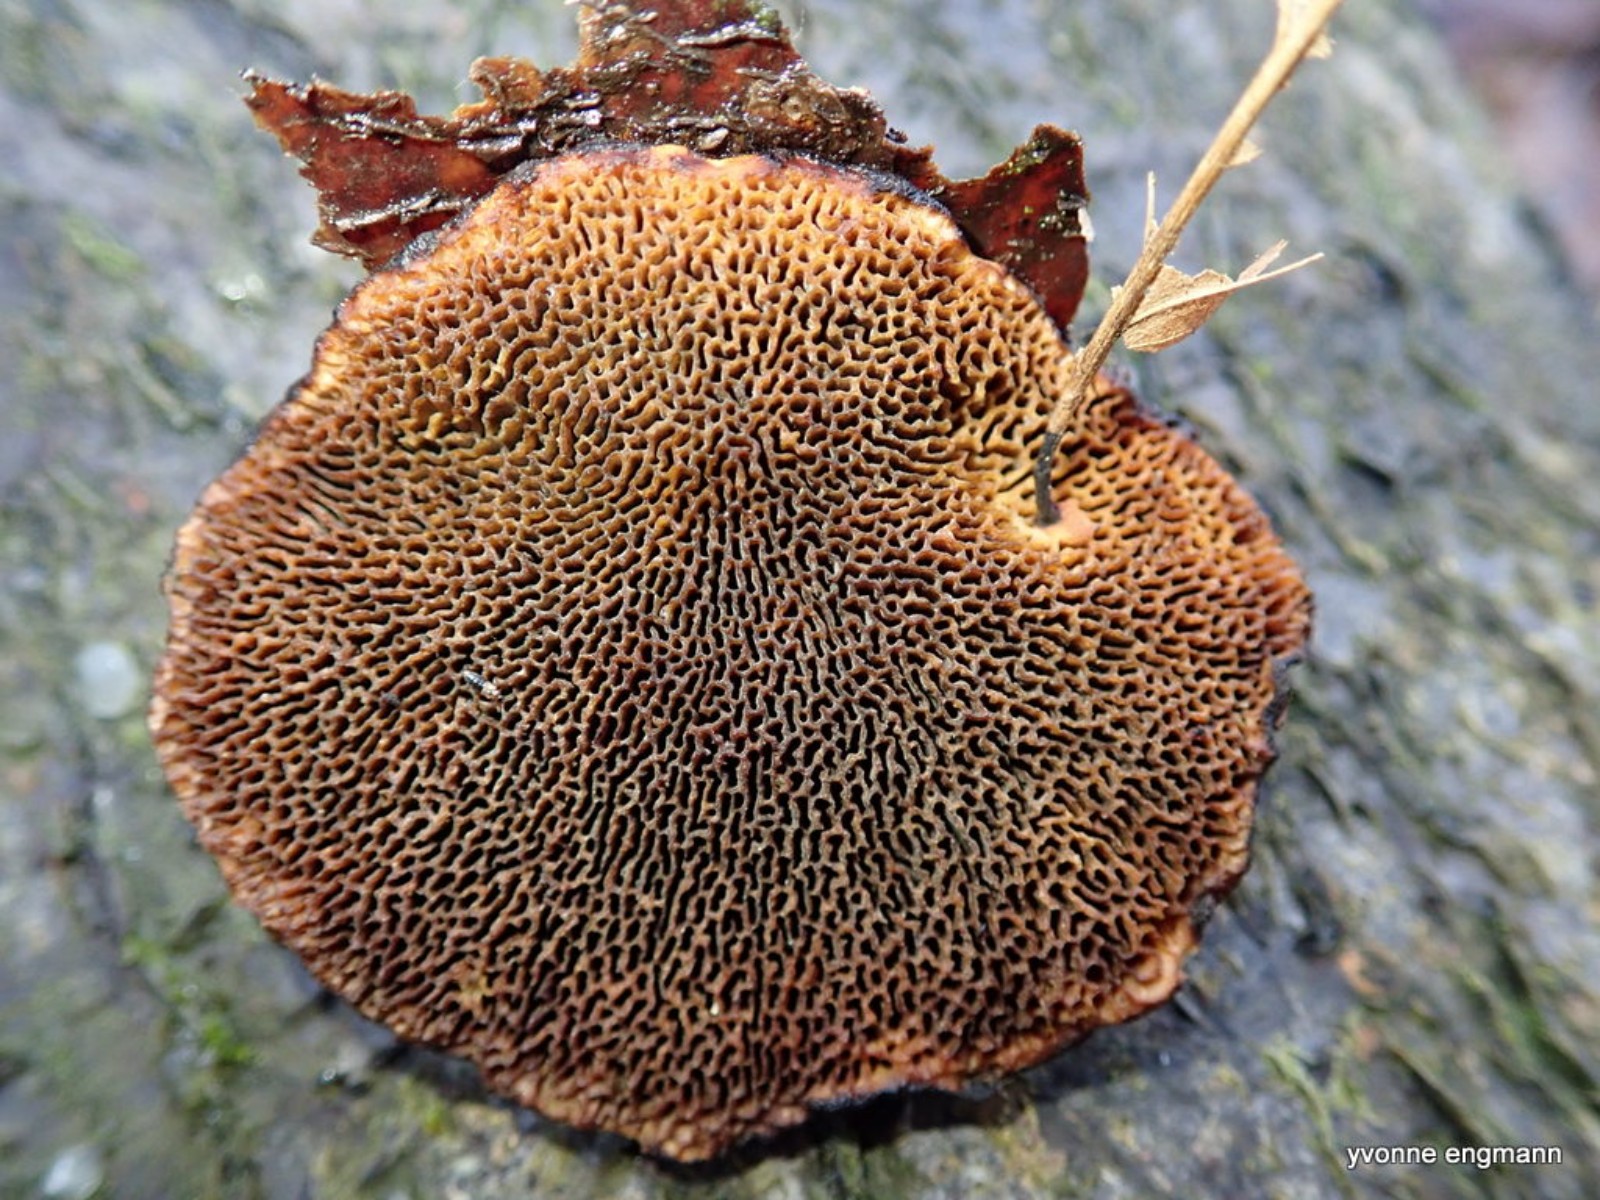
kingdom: Fungi
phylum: Basidiomycota
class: Agaricomycetes
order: Polyporales
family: Polyporaceae
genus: Daedaleopsis
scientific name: Daedaleopsis confragosa
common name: rødmende læderporesvamp
